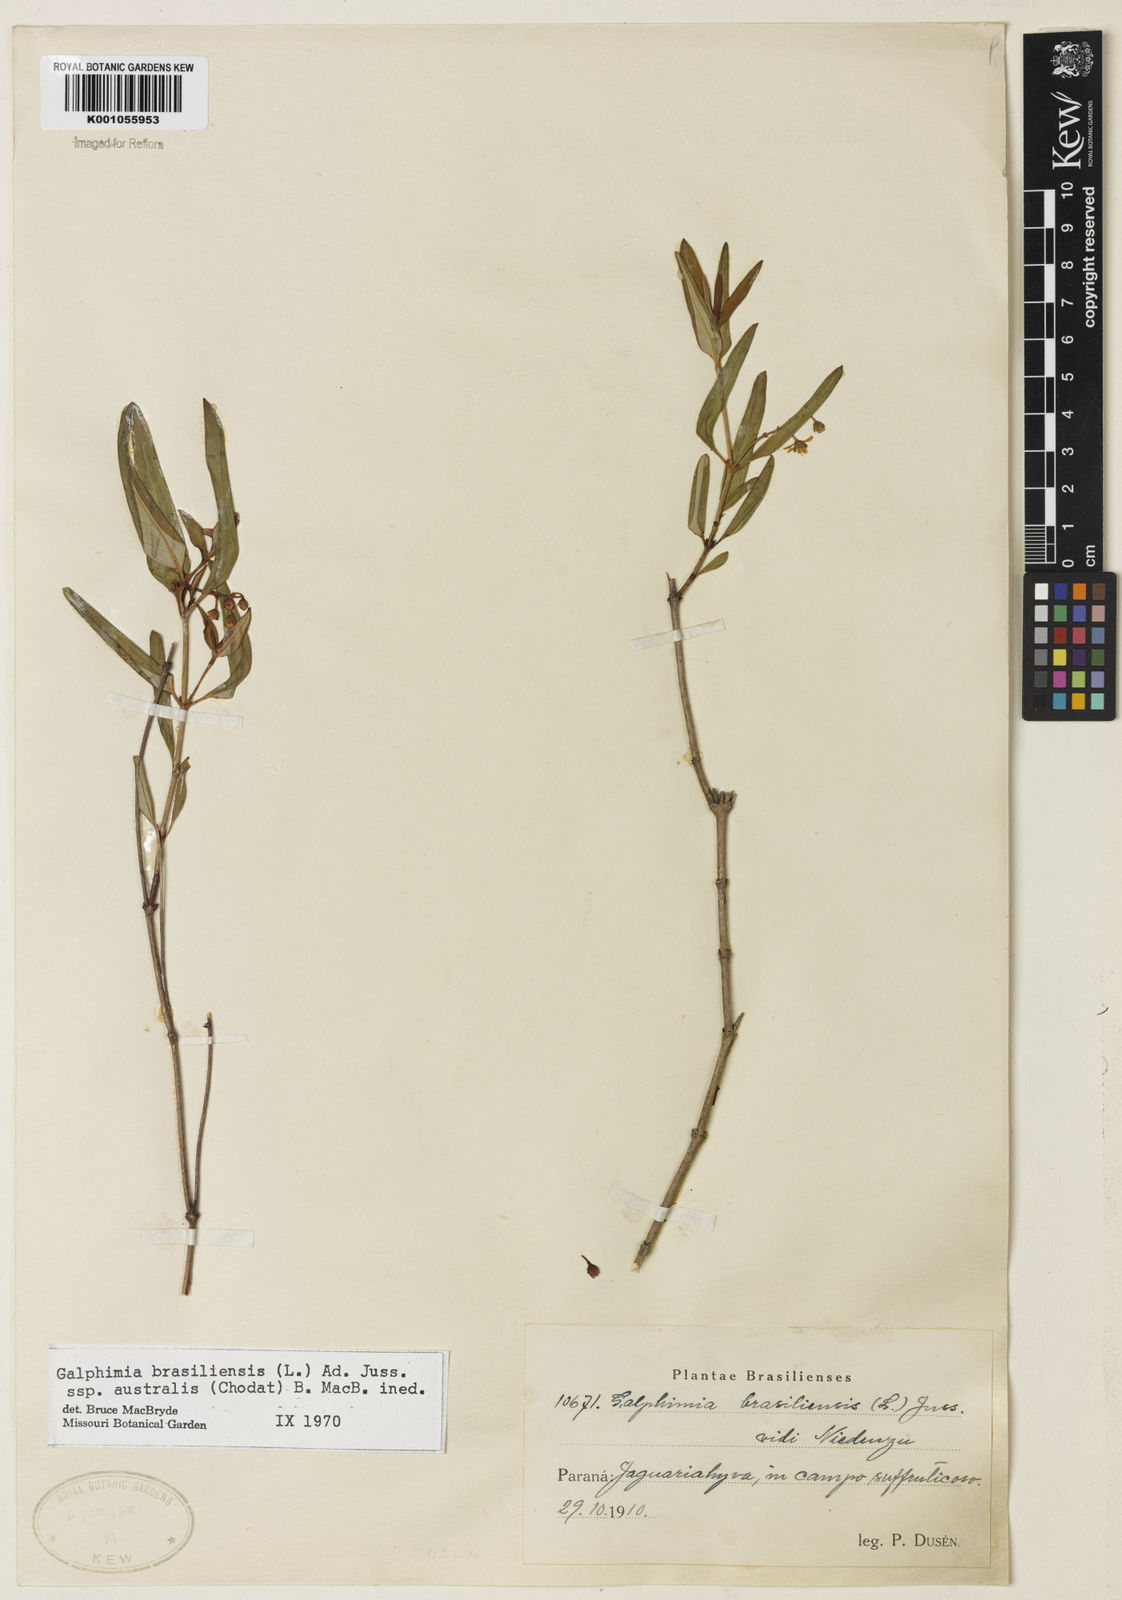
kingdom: Plantae
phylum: Tracheophyta
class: Magnoliopsida
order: Malpighiales
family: Malpighiaceae
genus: Galphimia
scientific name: Galphimia brasiliensis
